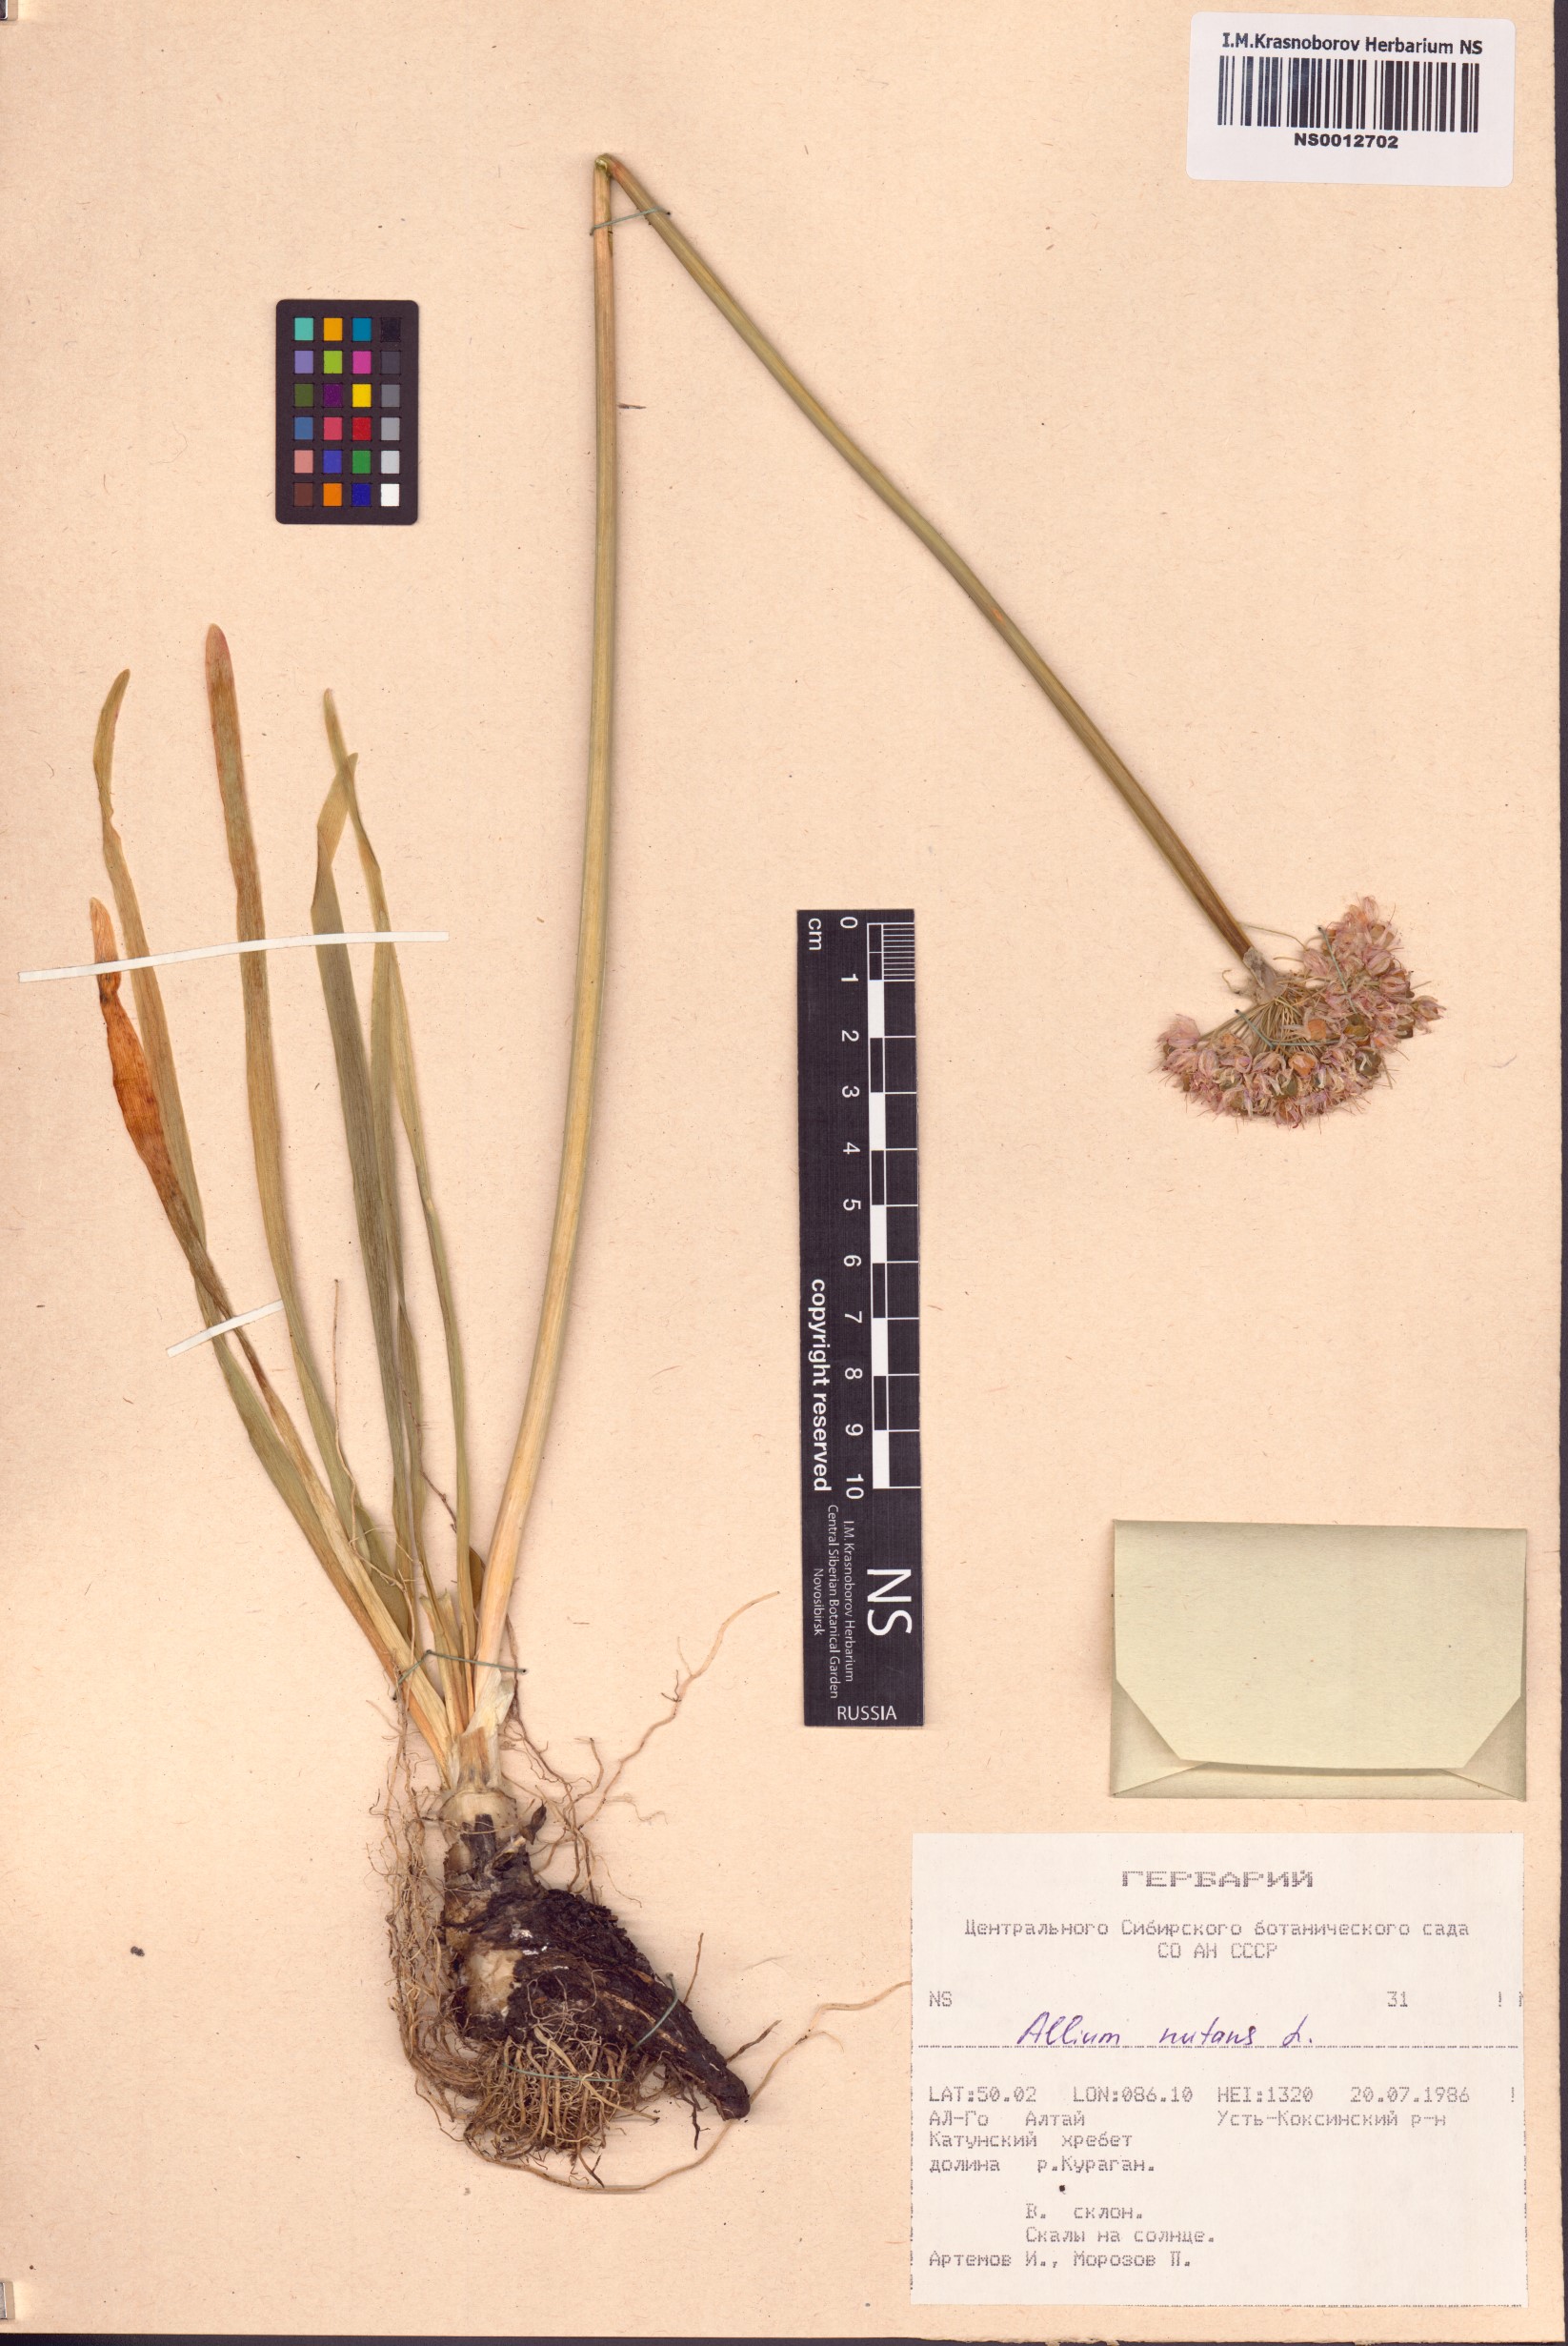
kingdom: Plantae
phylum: Tracheophyta
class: Liliopsida
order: Asparagales
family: Amaryllidaceae
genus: Allium
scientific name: Allium nutans
